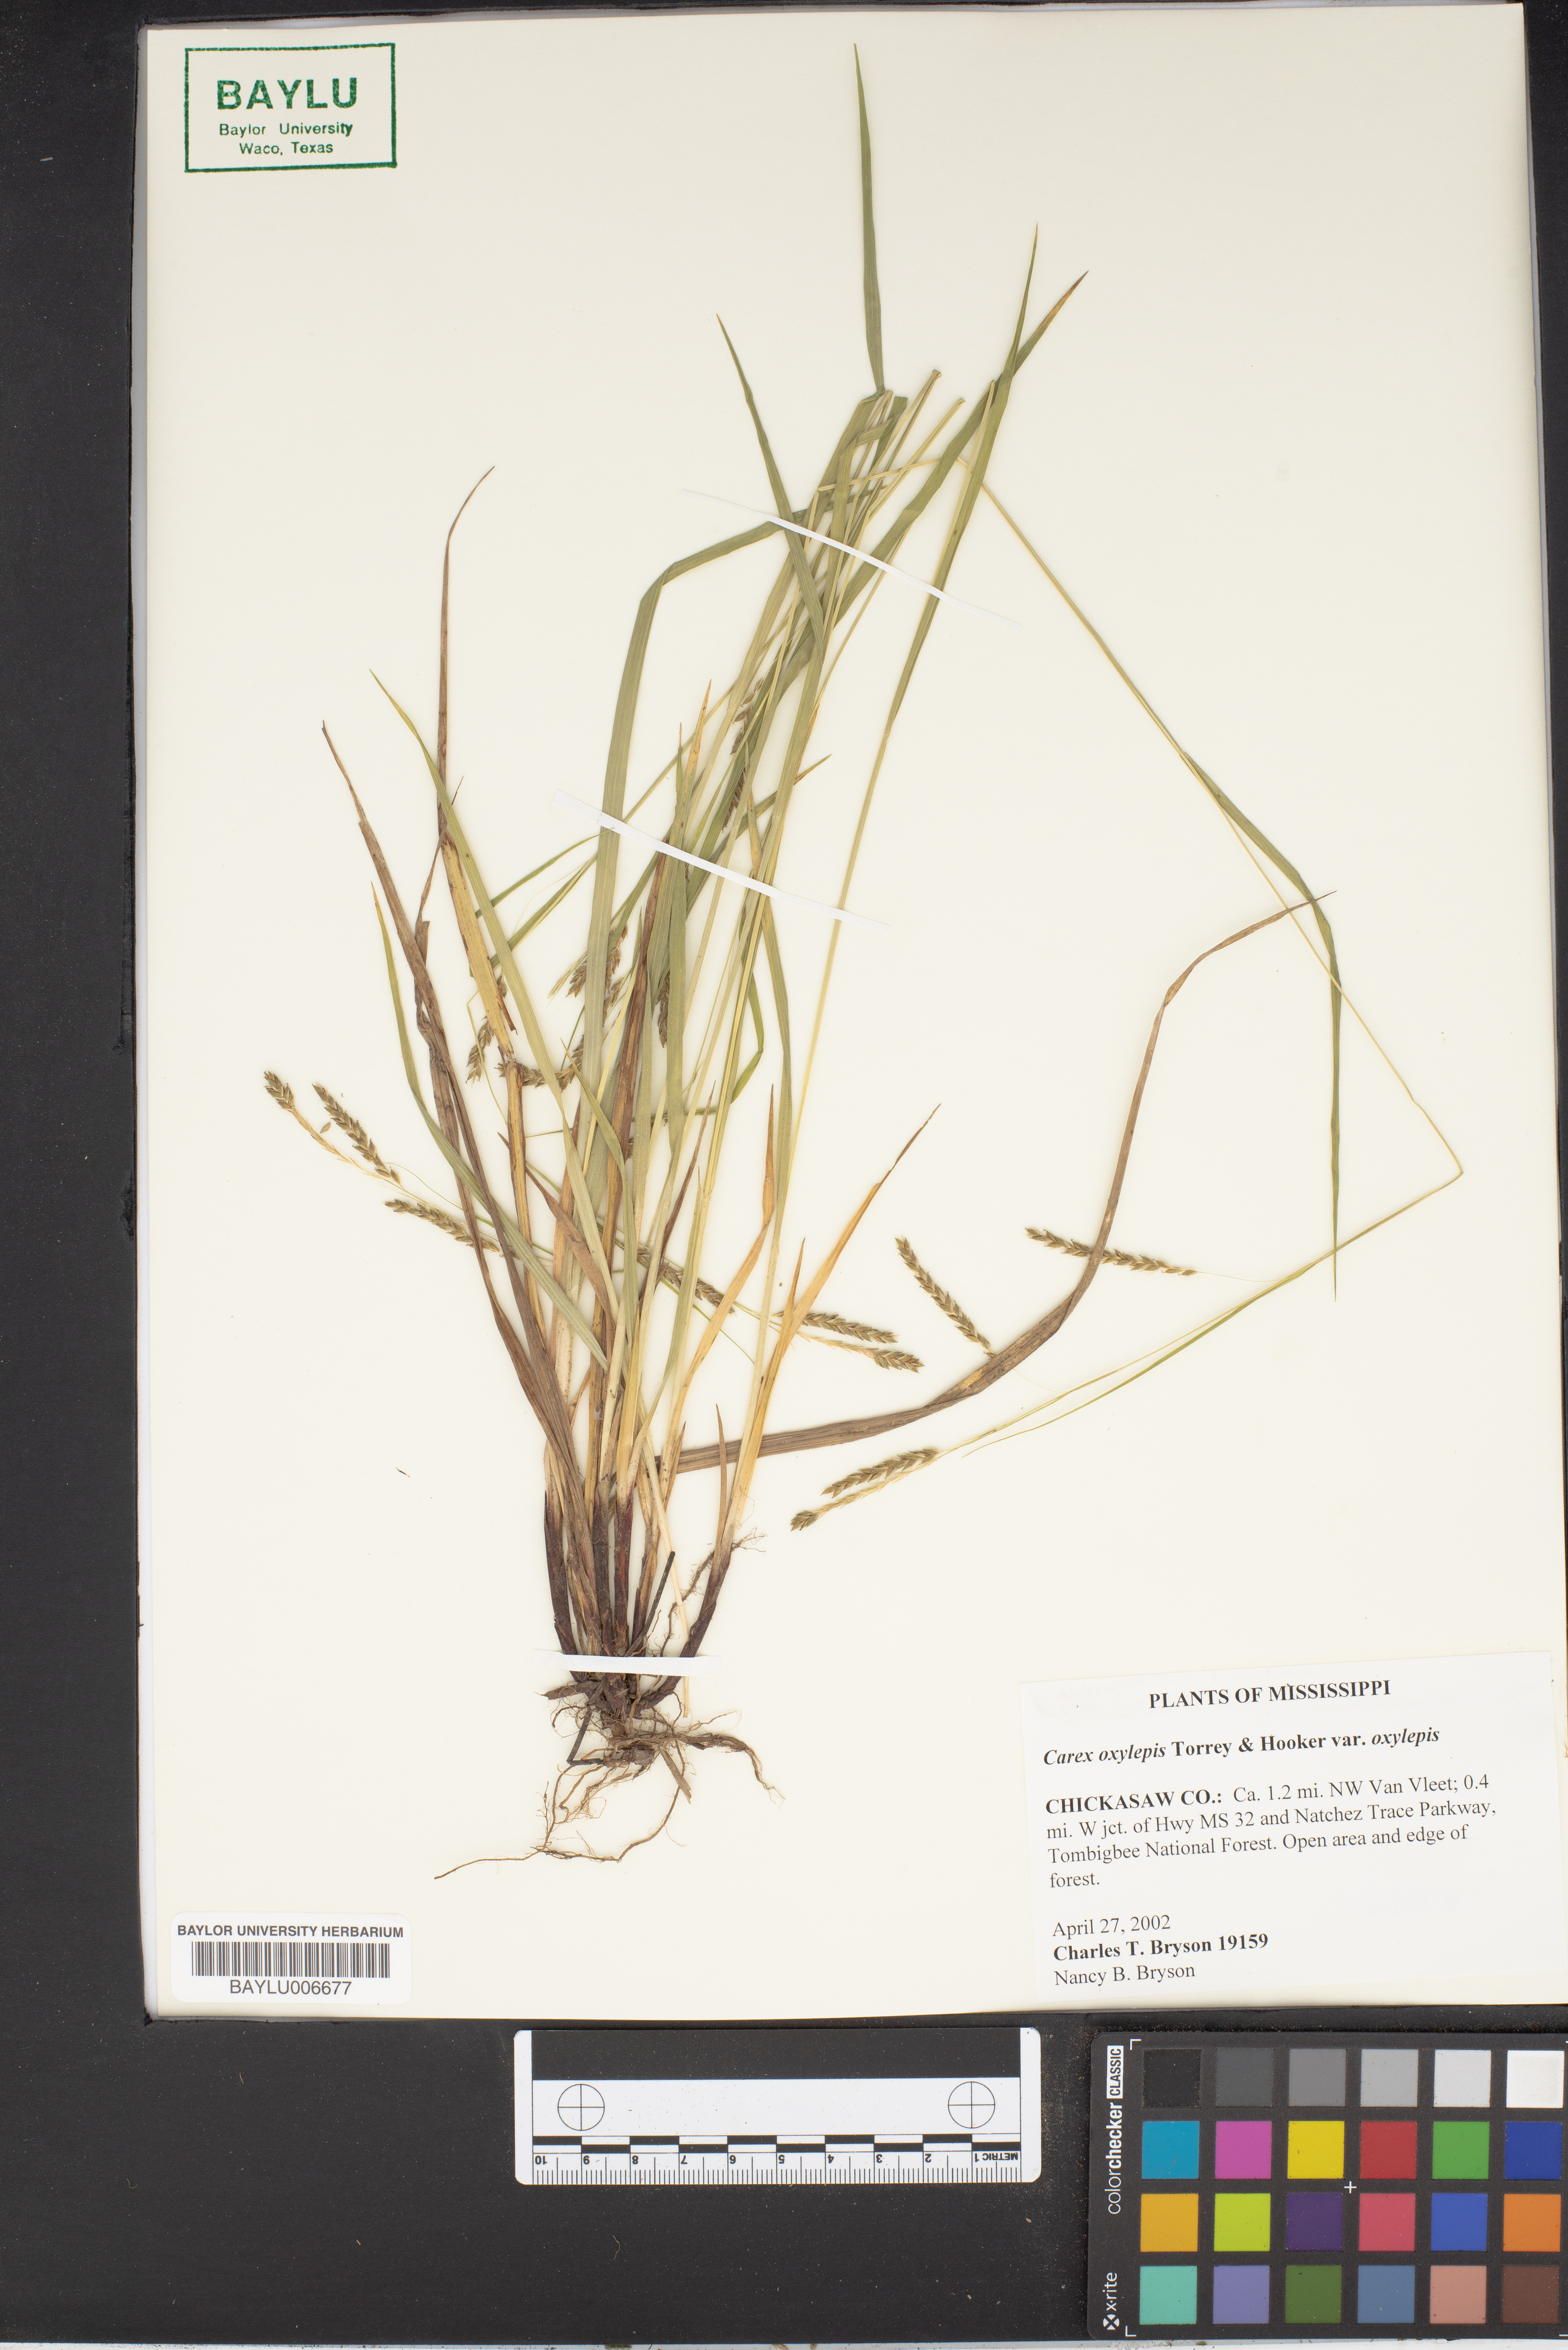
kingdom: Plantae
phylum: Tracheophyta
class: Liliopsida
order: Poales
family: Cyperaceae
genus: Carex
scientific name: Carex oxylepis
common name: Sharpscale sedge
